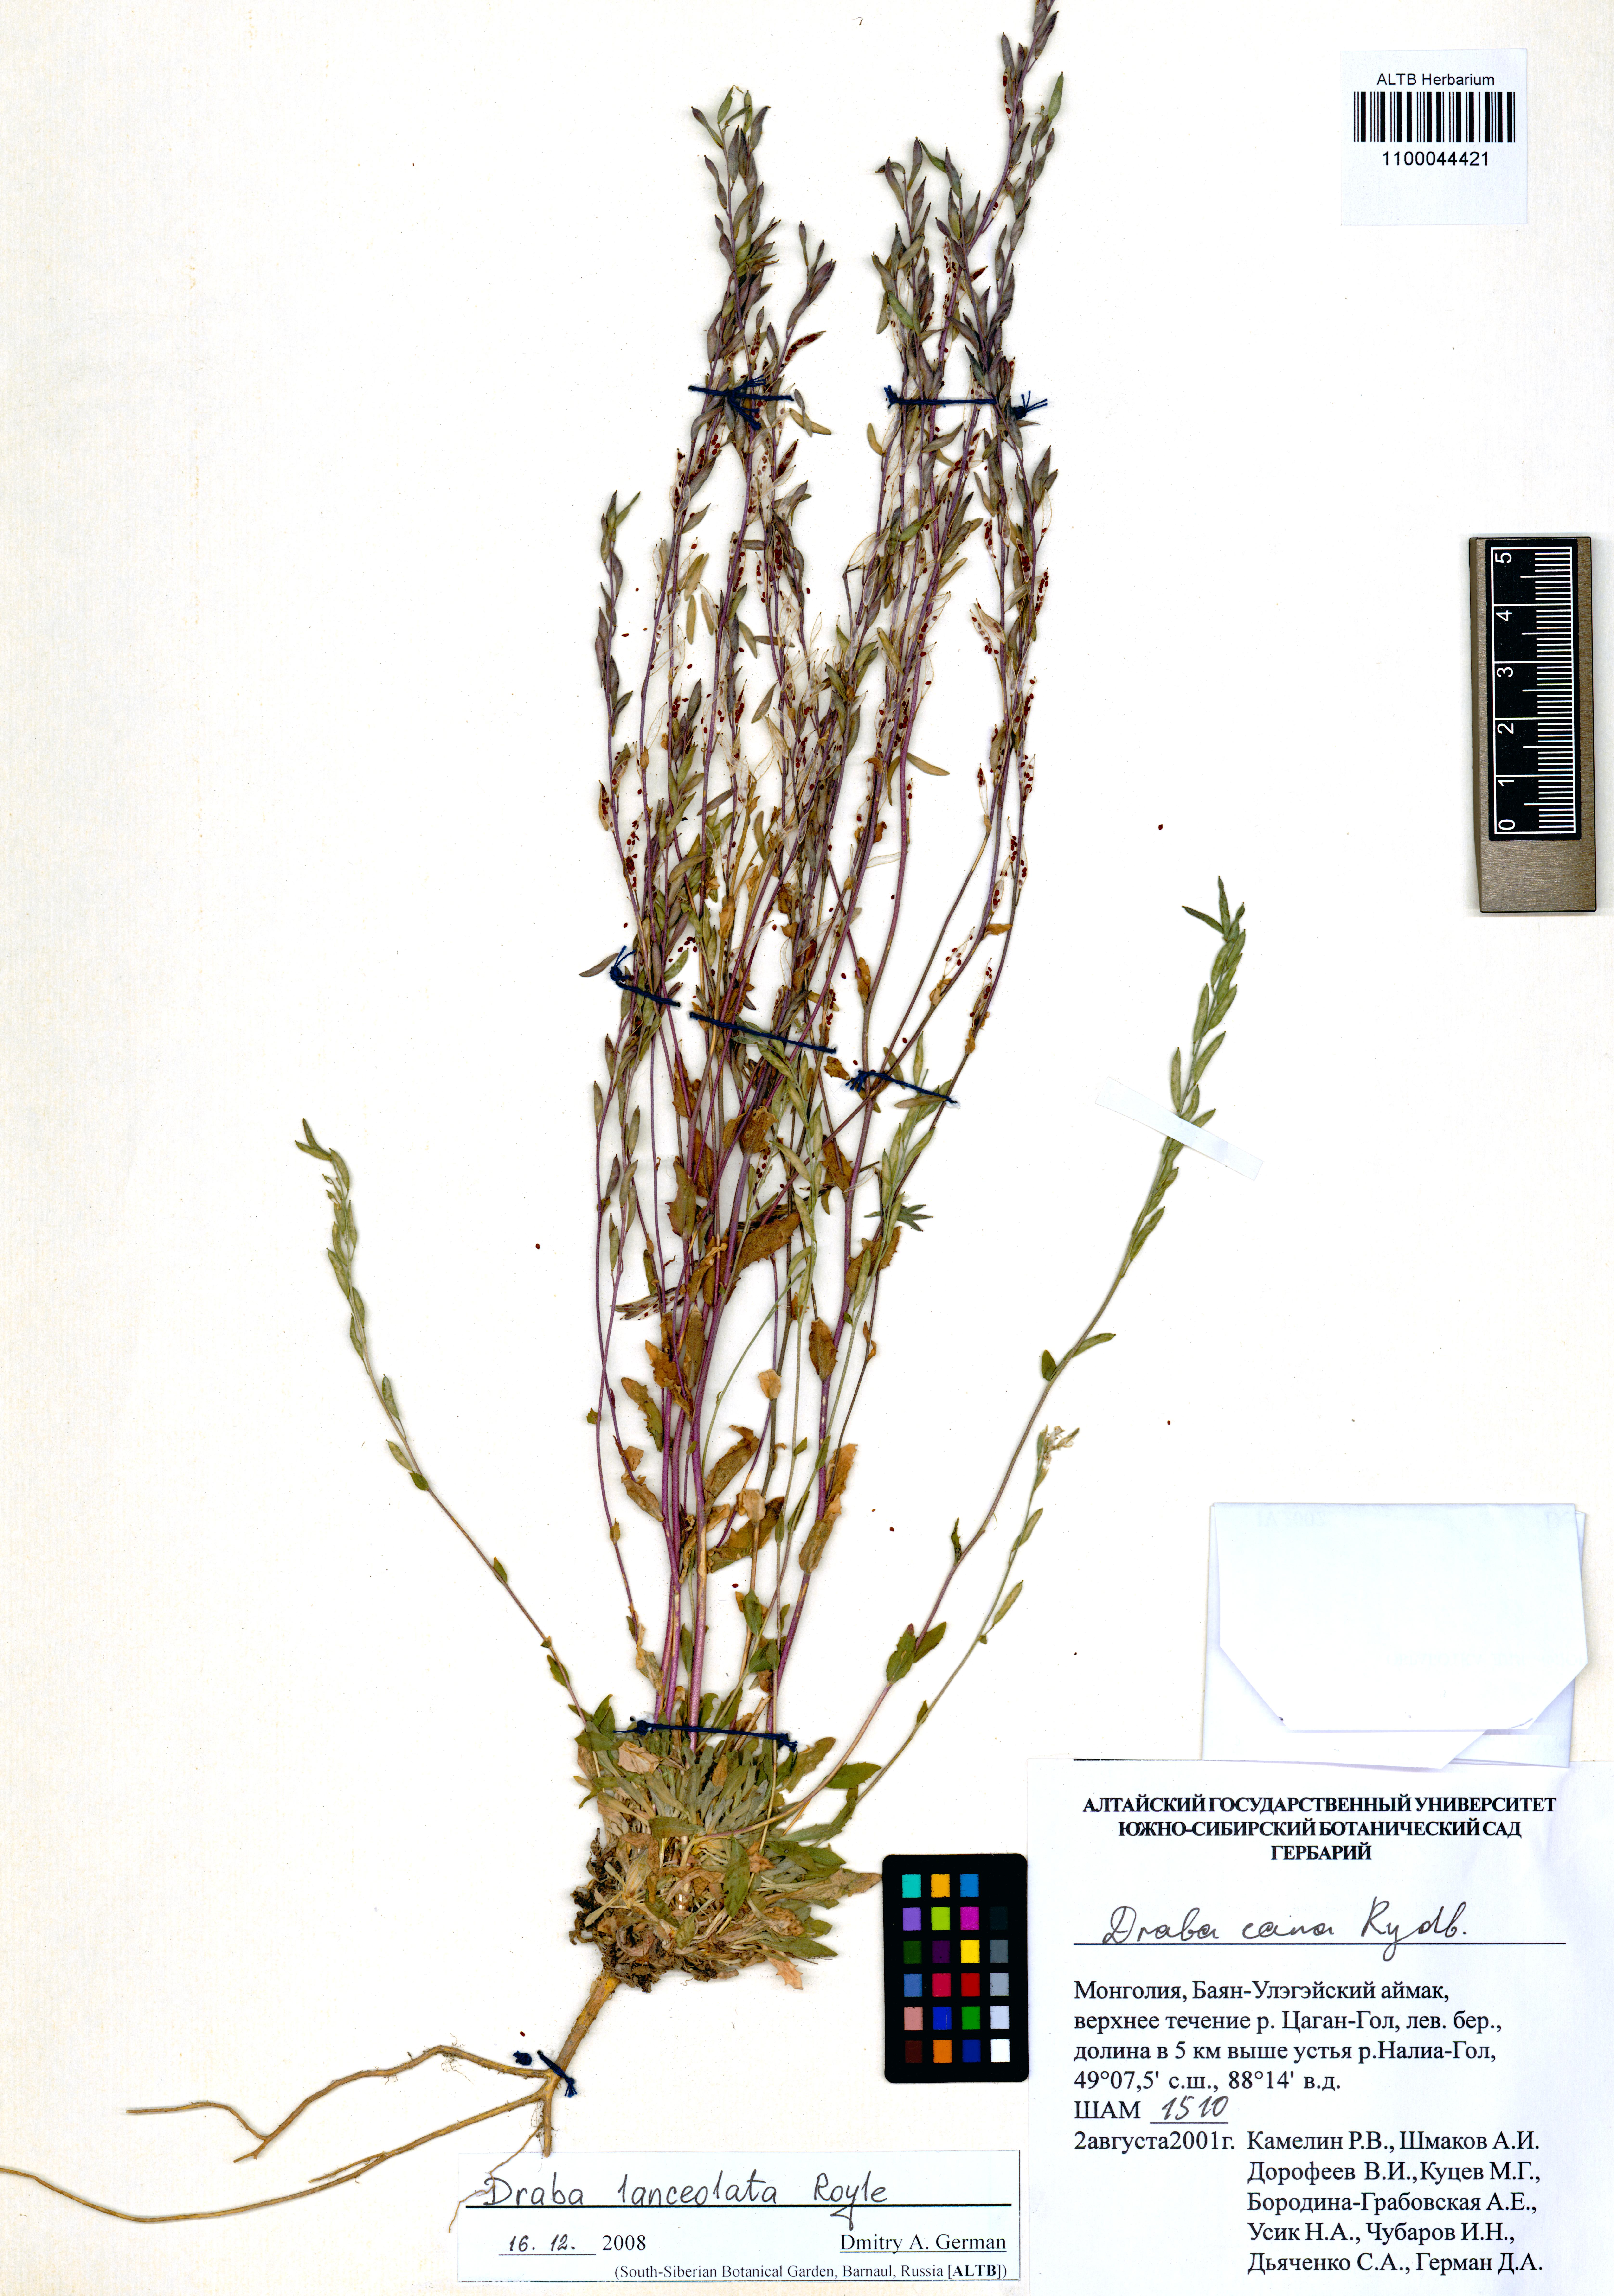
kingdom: Plantae
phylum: Tracheophyta
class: Magnoliopsida
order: Brassicales
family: Brassicaceae
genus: Draba
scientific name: Draba lanceolata
